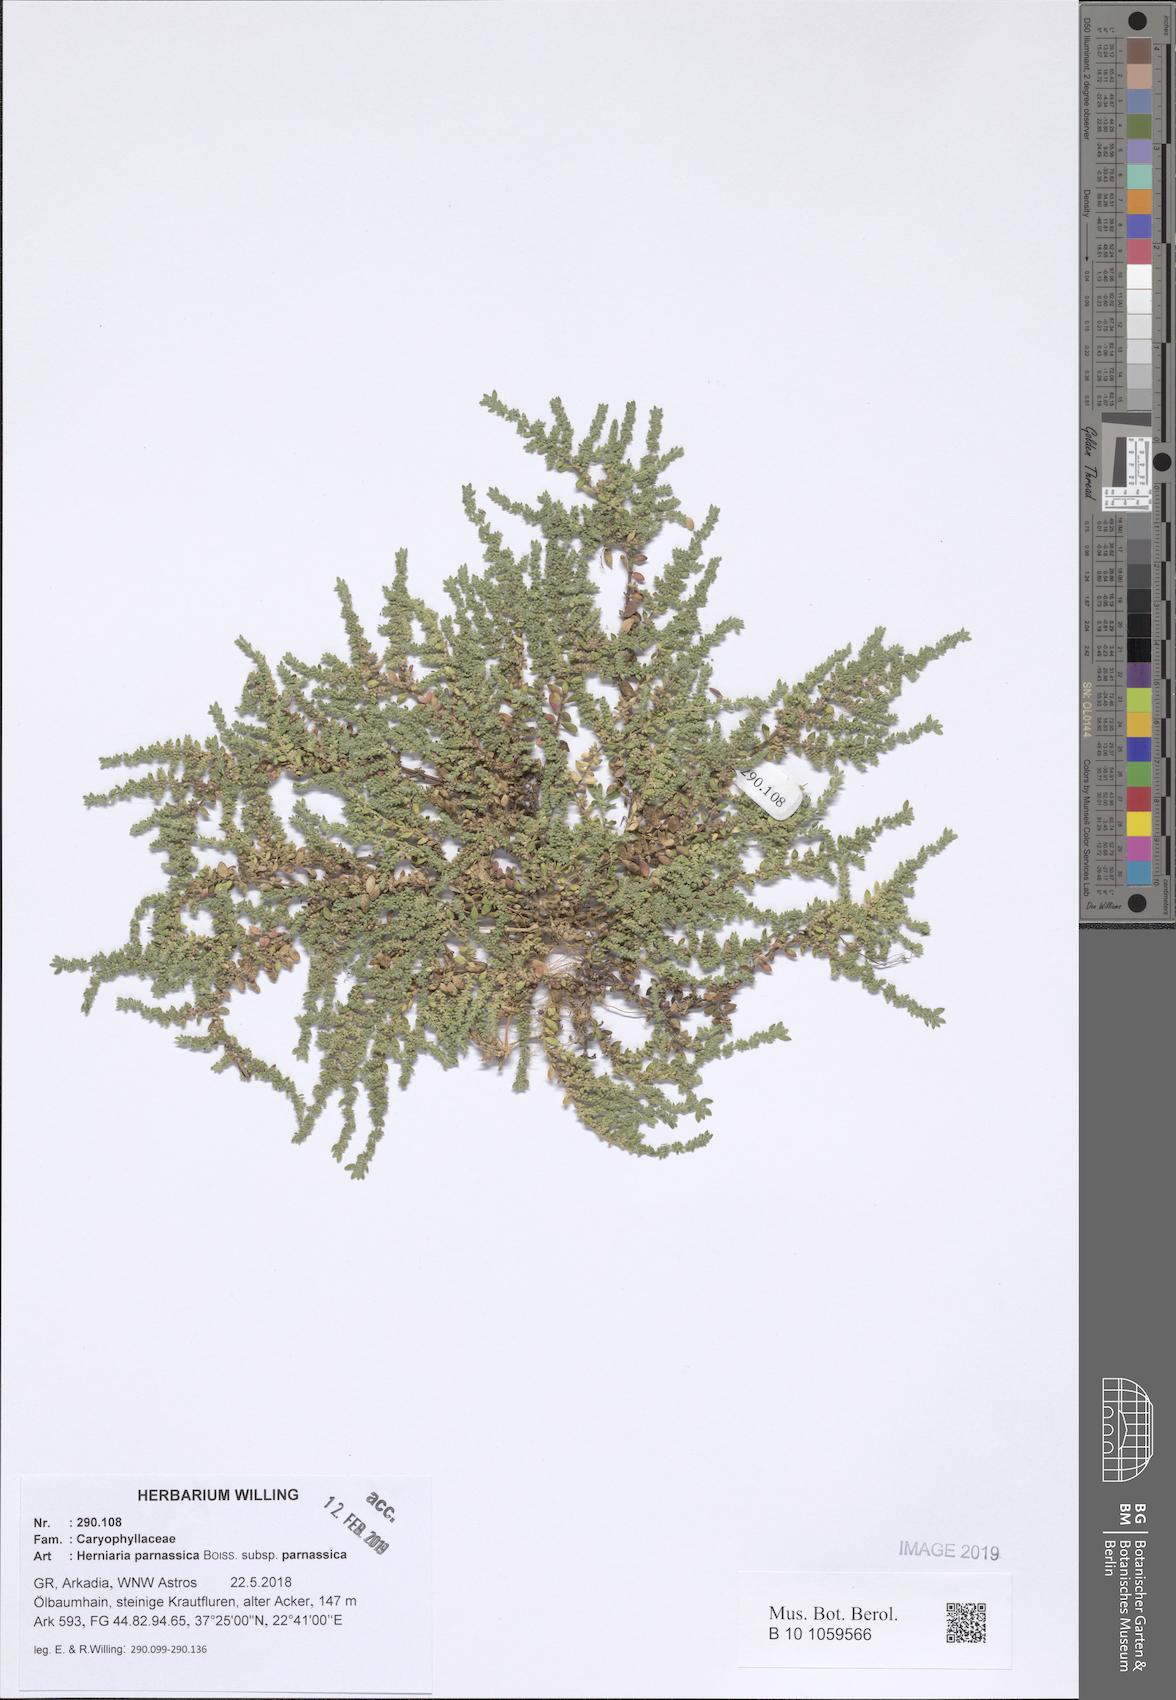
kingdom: Plantae
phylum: Tracheophyta
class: Magnoliopsida
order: Caryophyllales
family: Caryophyllaceae
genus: Herniaria
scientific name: Herniaria parnassica
